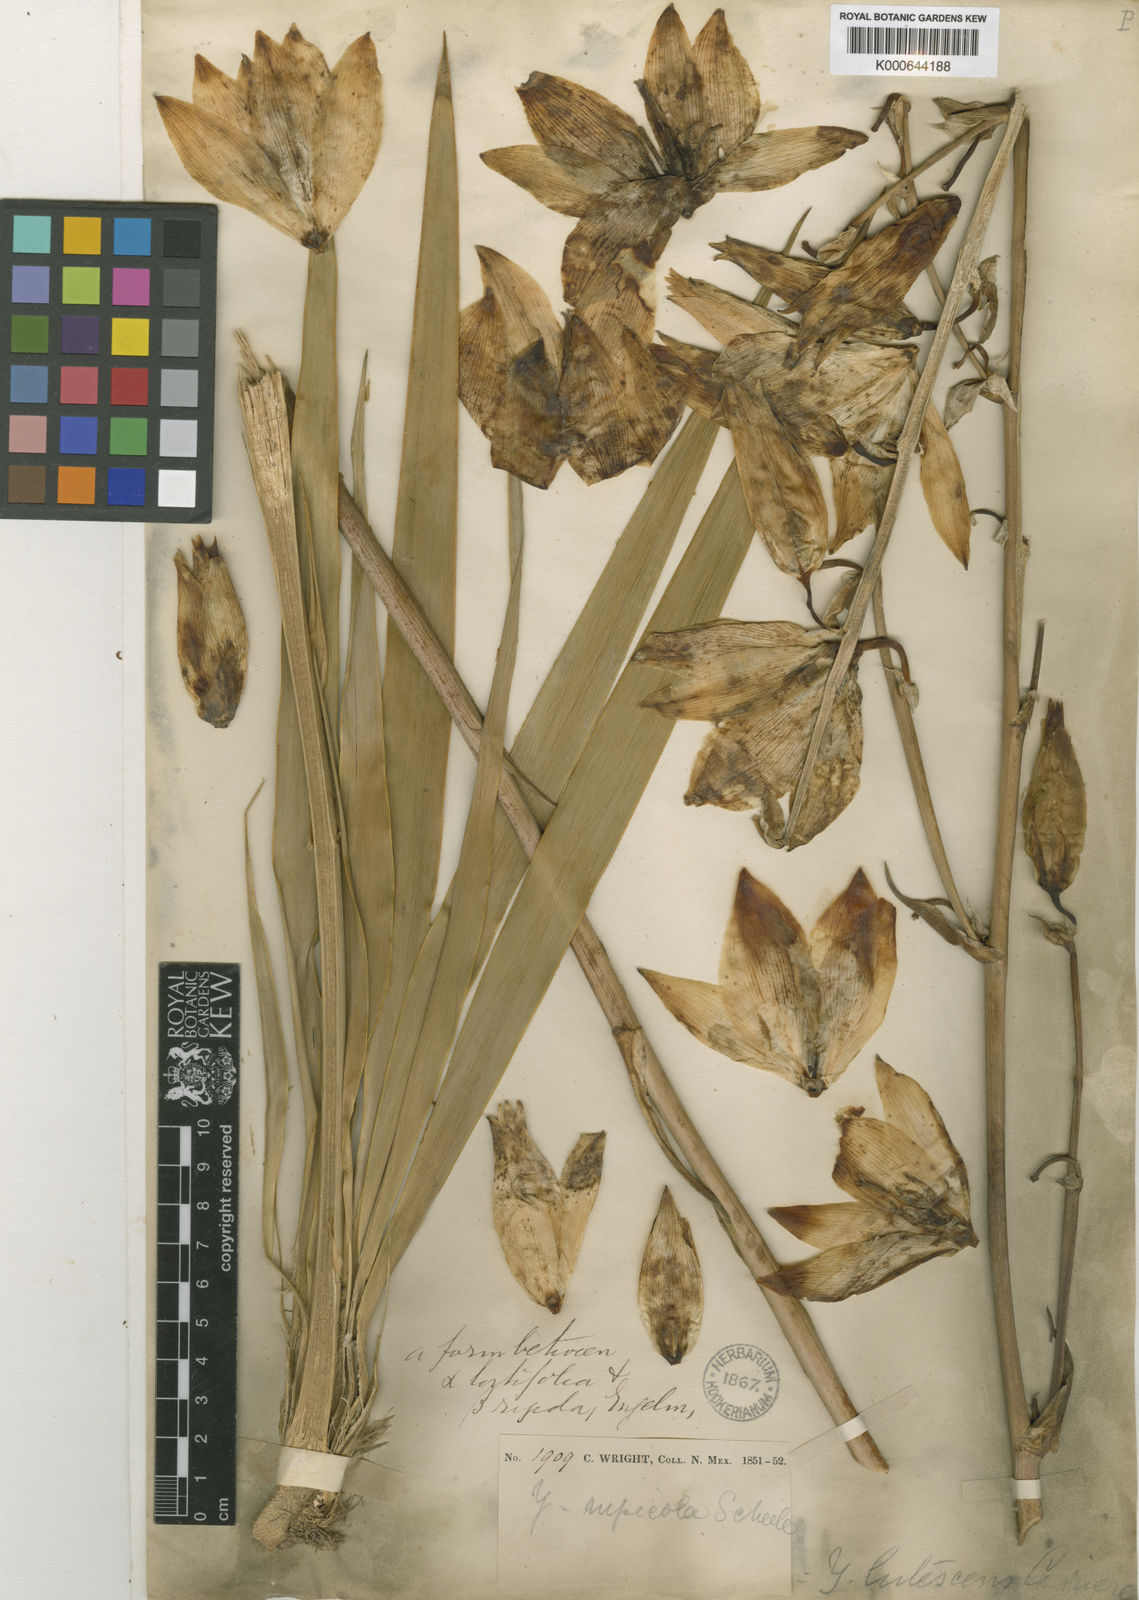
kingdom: Plantae
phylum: Tracheophyta
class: Liliopsida
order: Asparagales
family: Asparagaceae
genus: Yucca
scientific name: Yucca rupicola
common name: Twisted-leaf spanish-dagger
